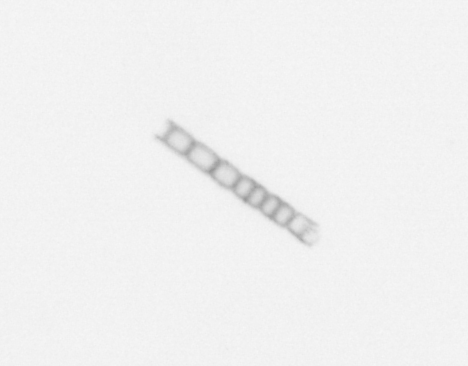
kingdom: Chromista
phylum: Ochrophyta
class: Bacillariophyceae
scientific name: Bacillariophyceae
